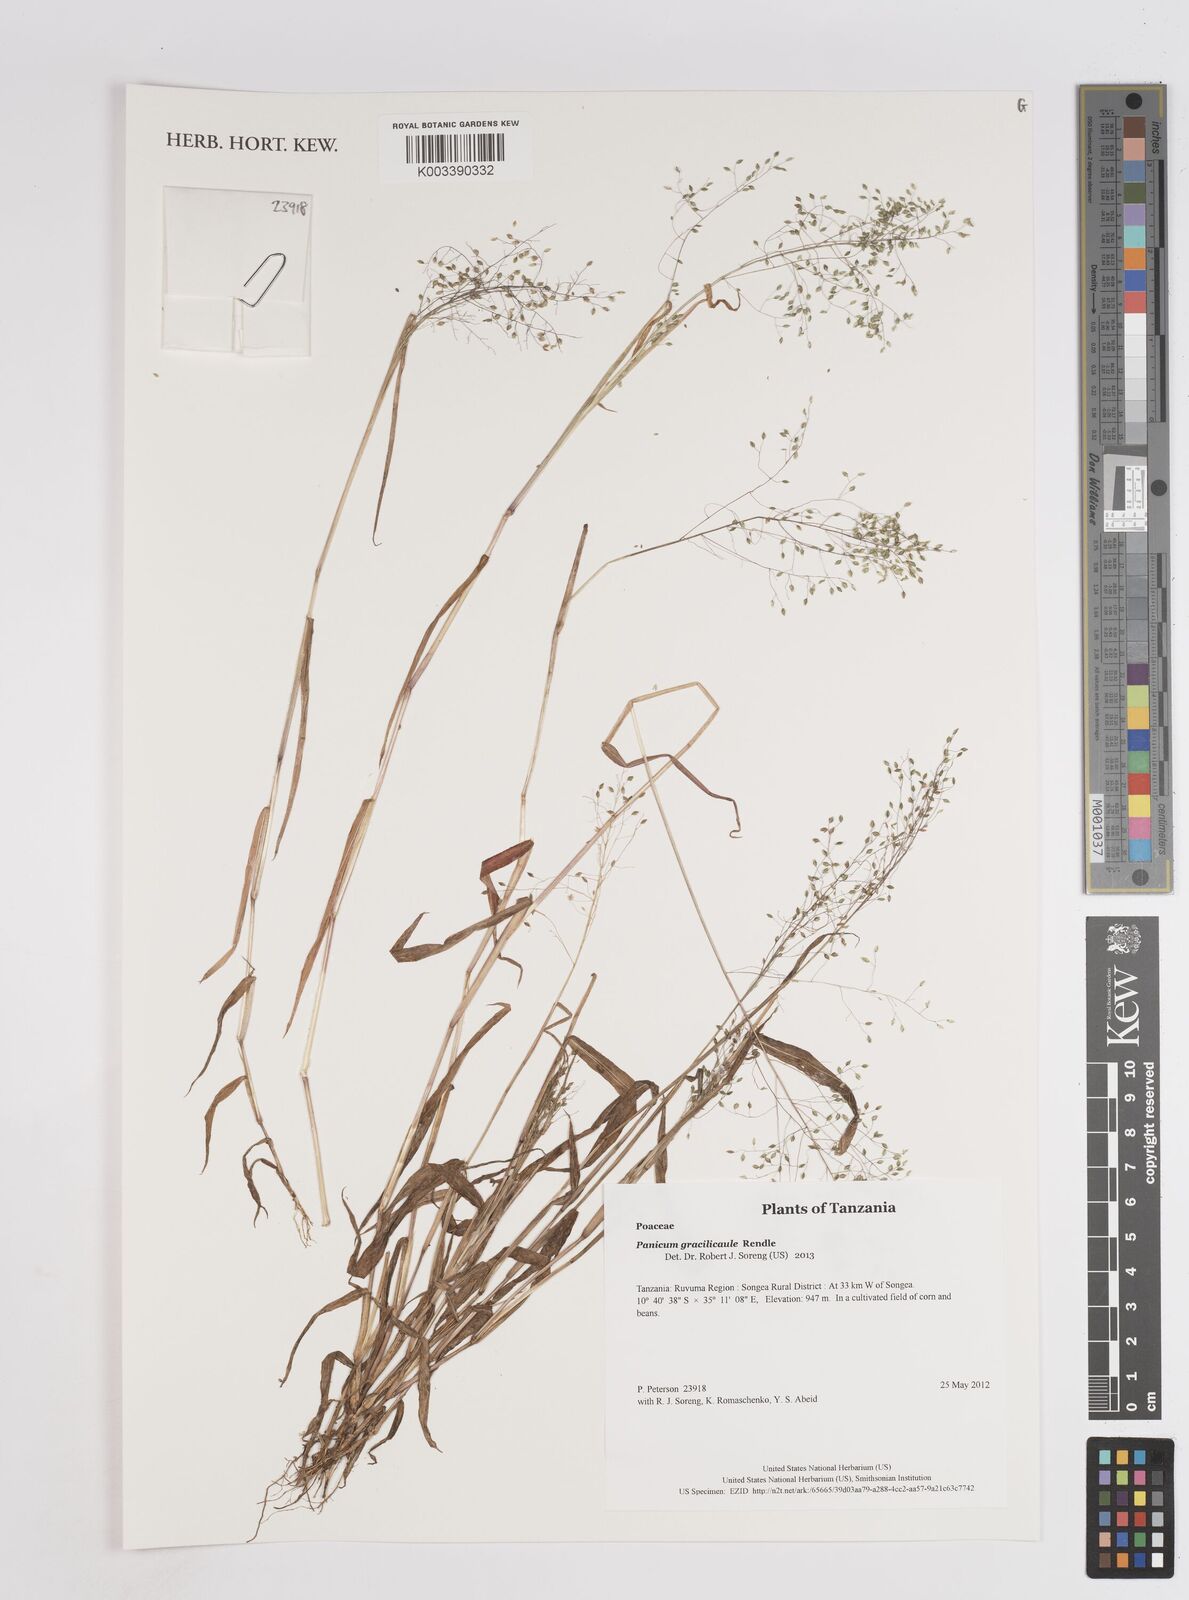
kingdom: Plantae
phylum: Tracheophyta
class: Liliopsida
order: Poales
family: Poaceae
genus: Trichanthecium
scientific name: Trichanthecium gracilicaule
